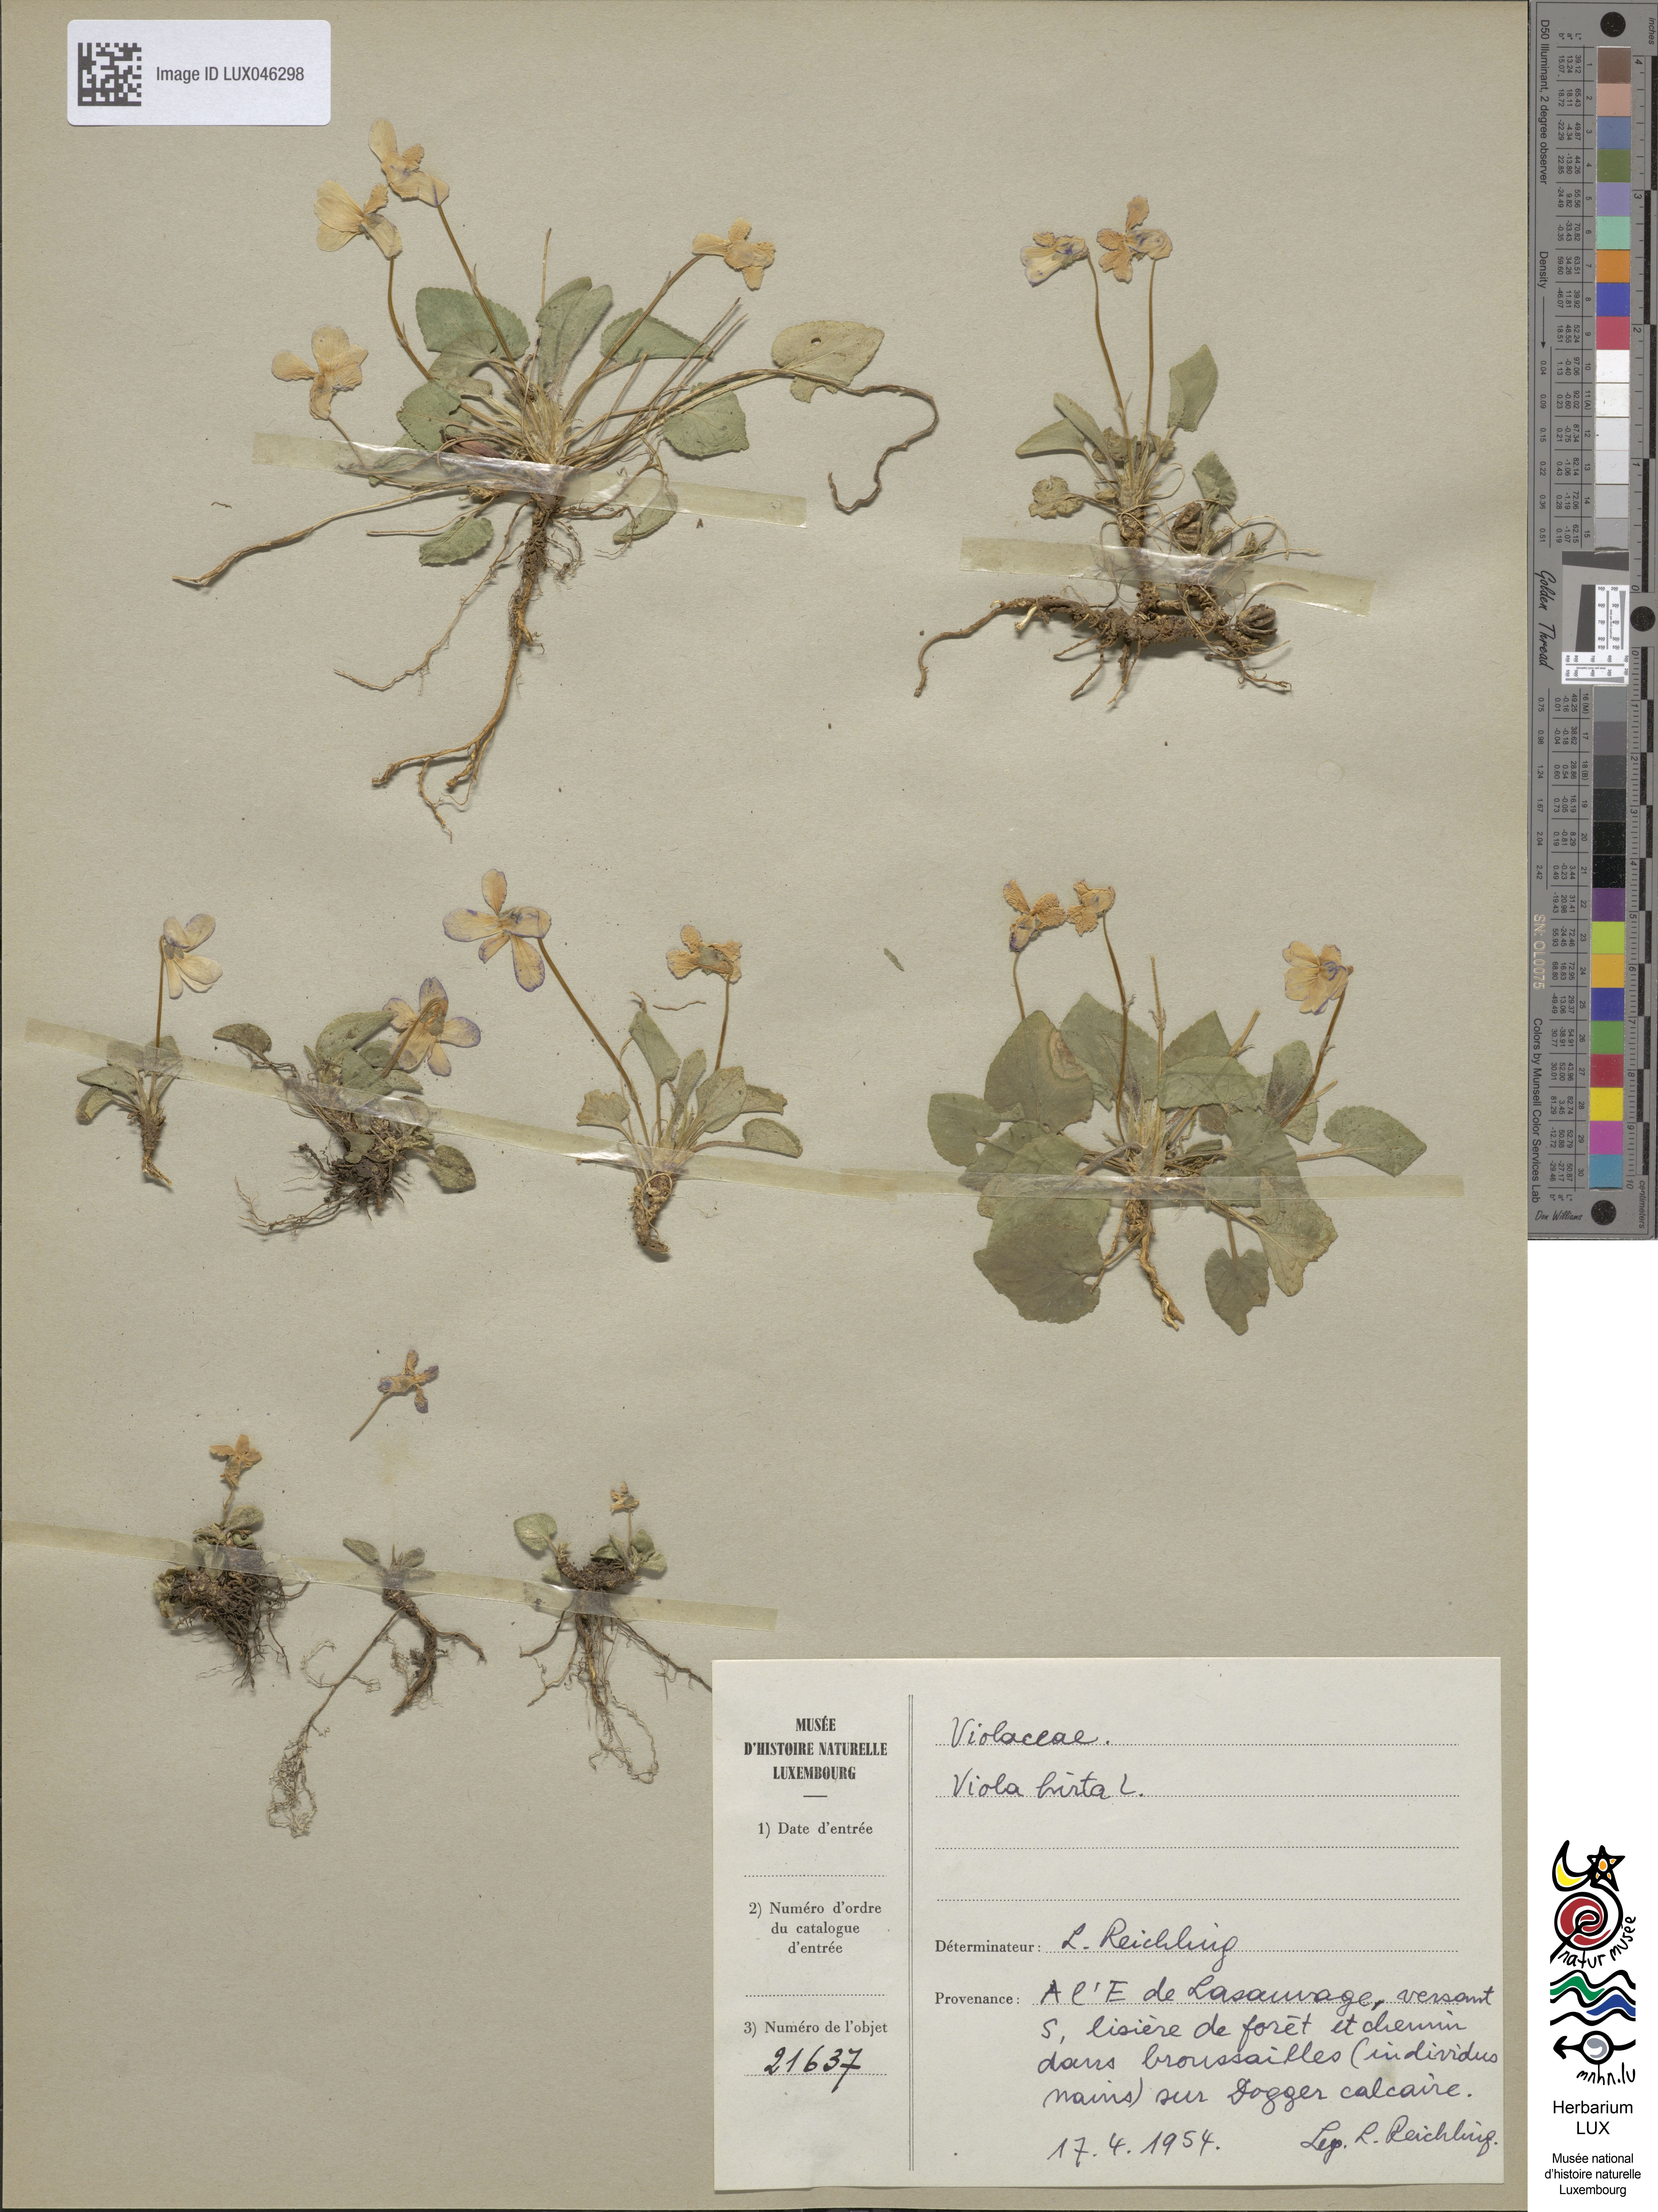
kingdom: Plantae
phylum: Tracheophyta
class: Magnoliopsida
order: Malpighiales
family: Violaceae
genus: Viola
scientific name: Viola hirta
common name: Hairy violet
